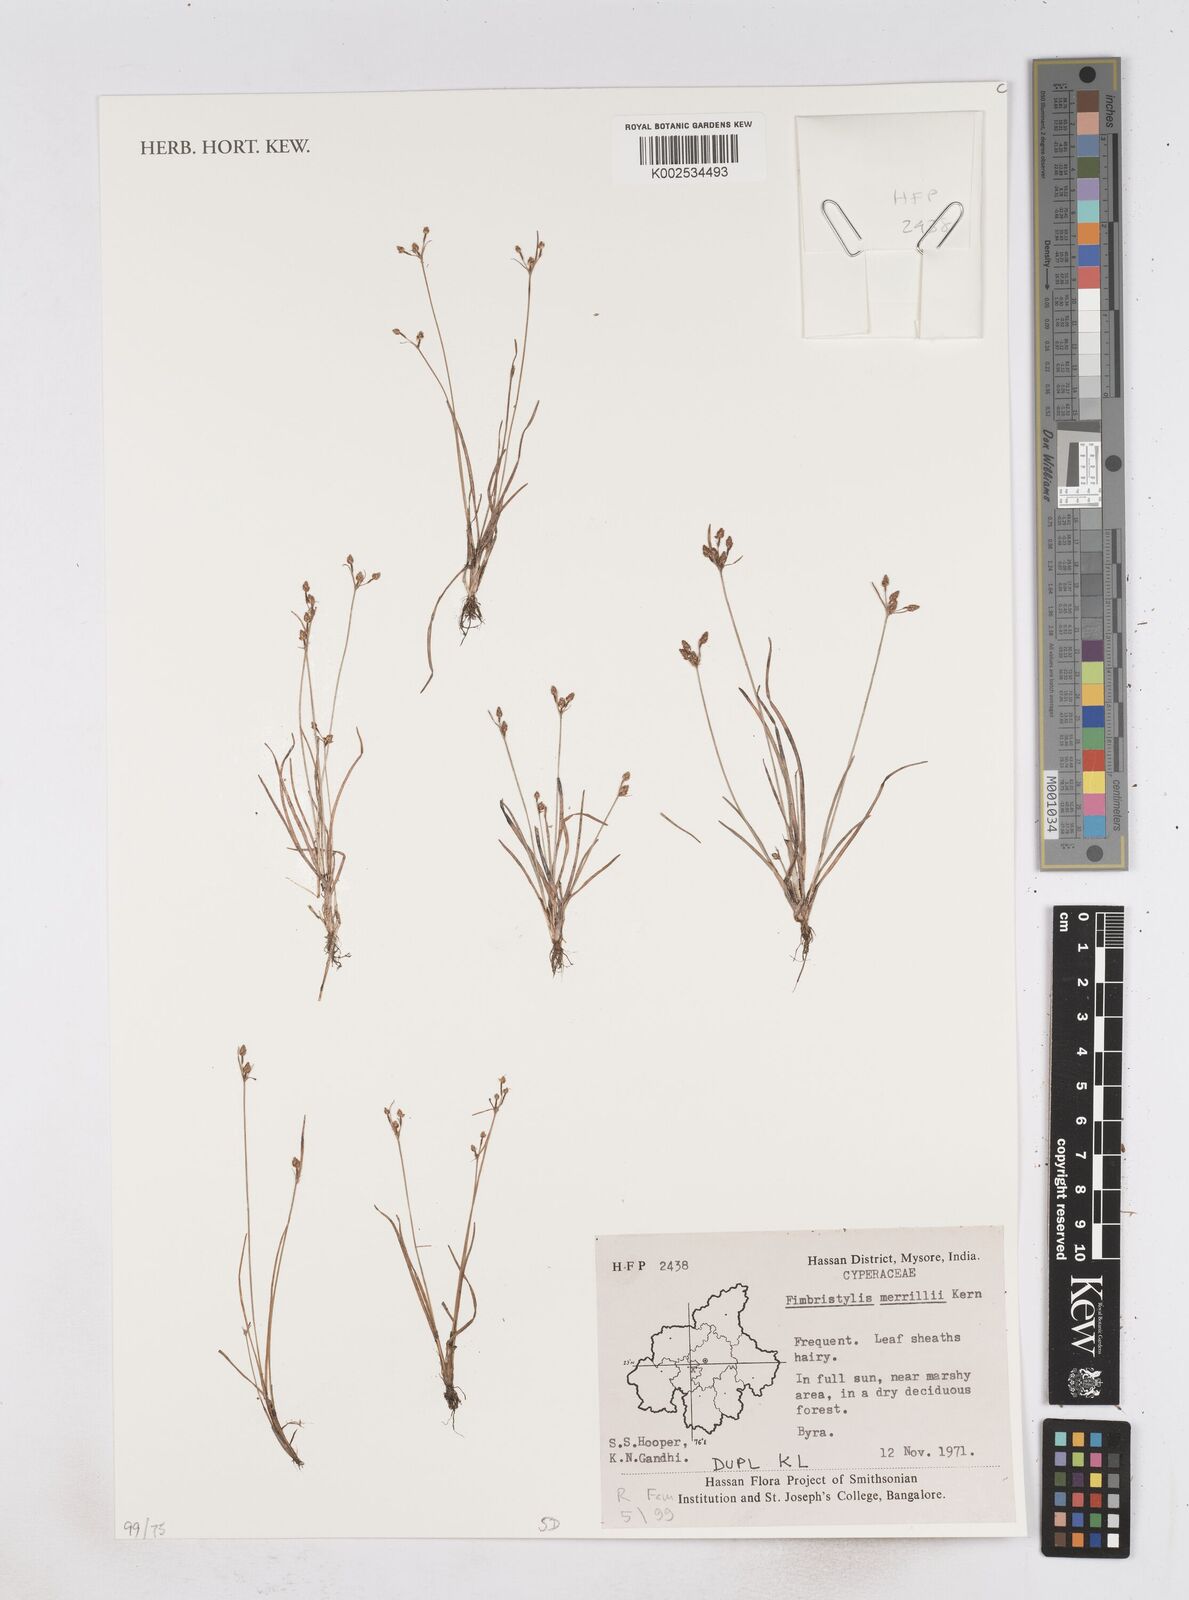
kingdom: Plantae
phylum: Tracheophyta
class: Liliopsida
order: Poales
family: Cyperaceae
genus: Fimbristylis
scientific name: Fimbristylis merrillii
